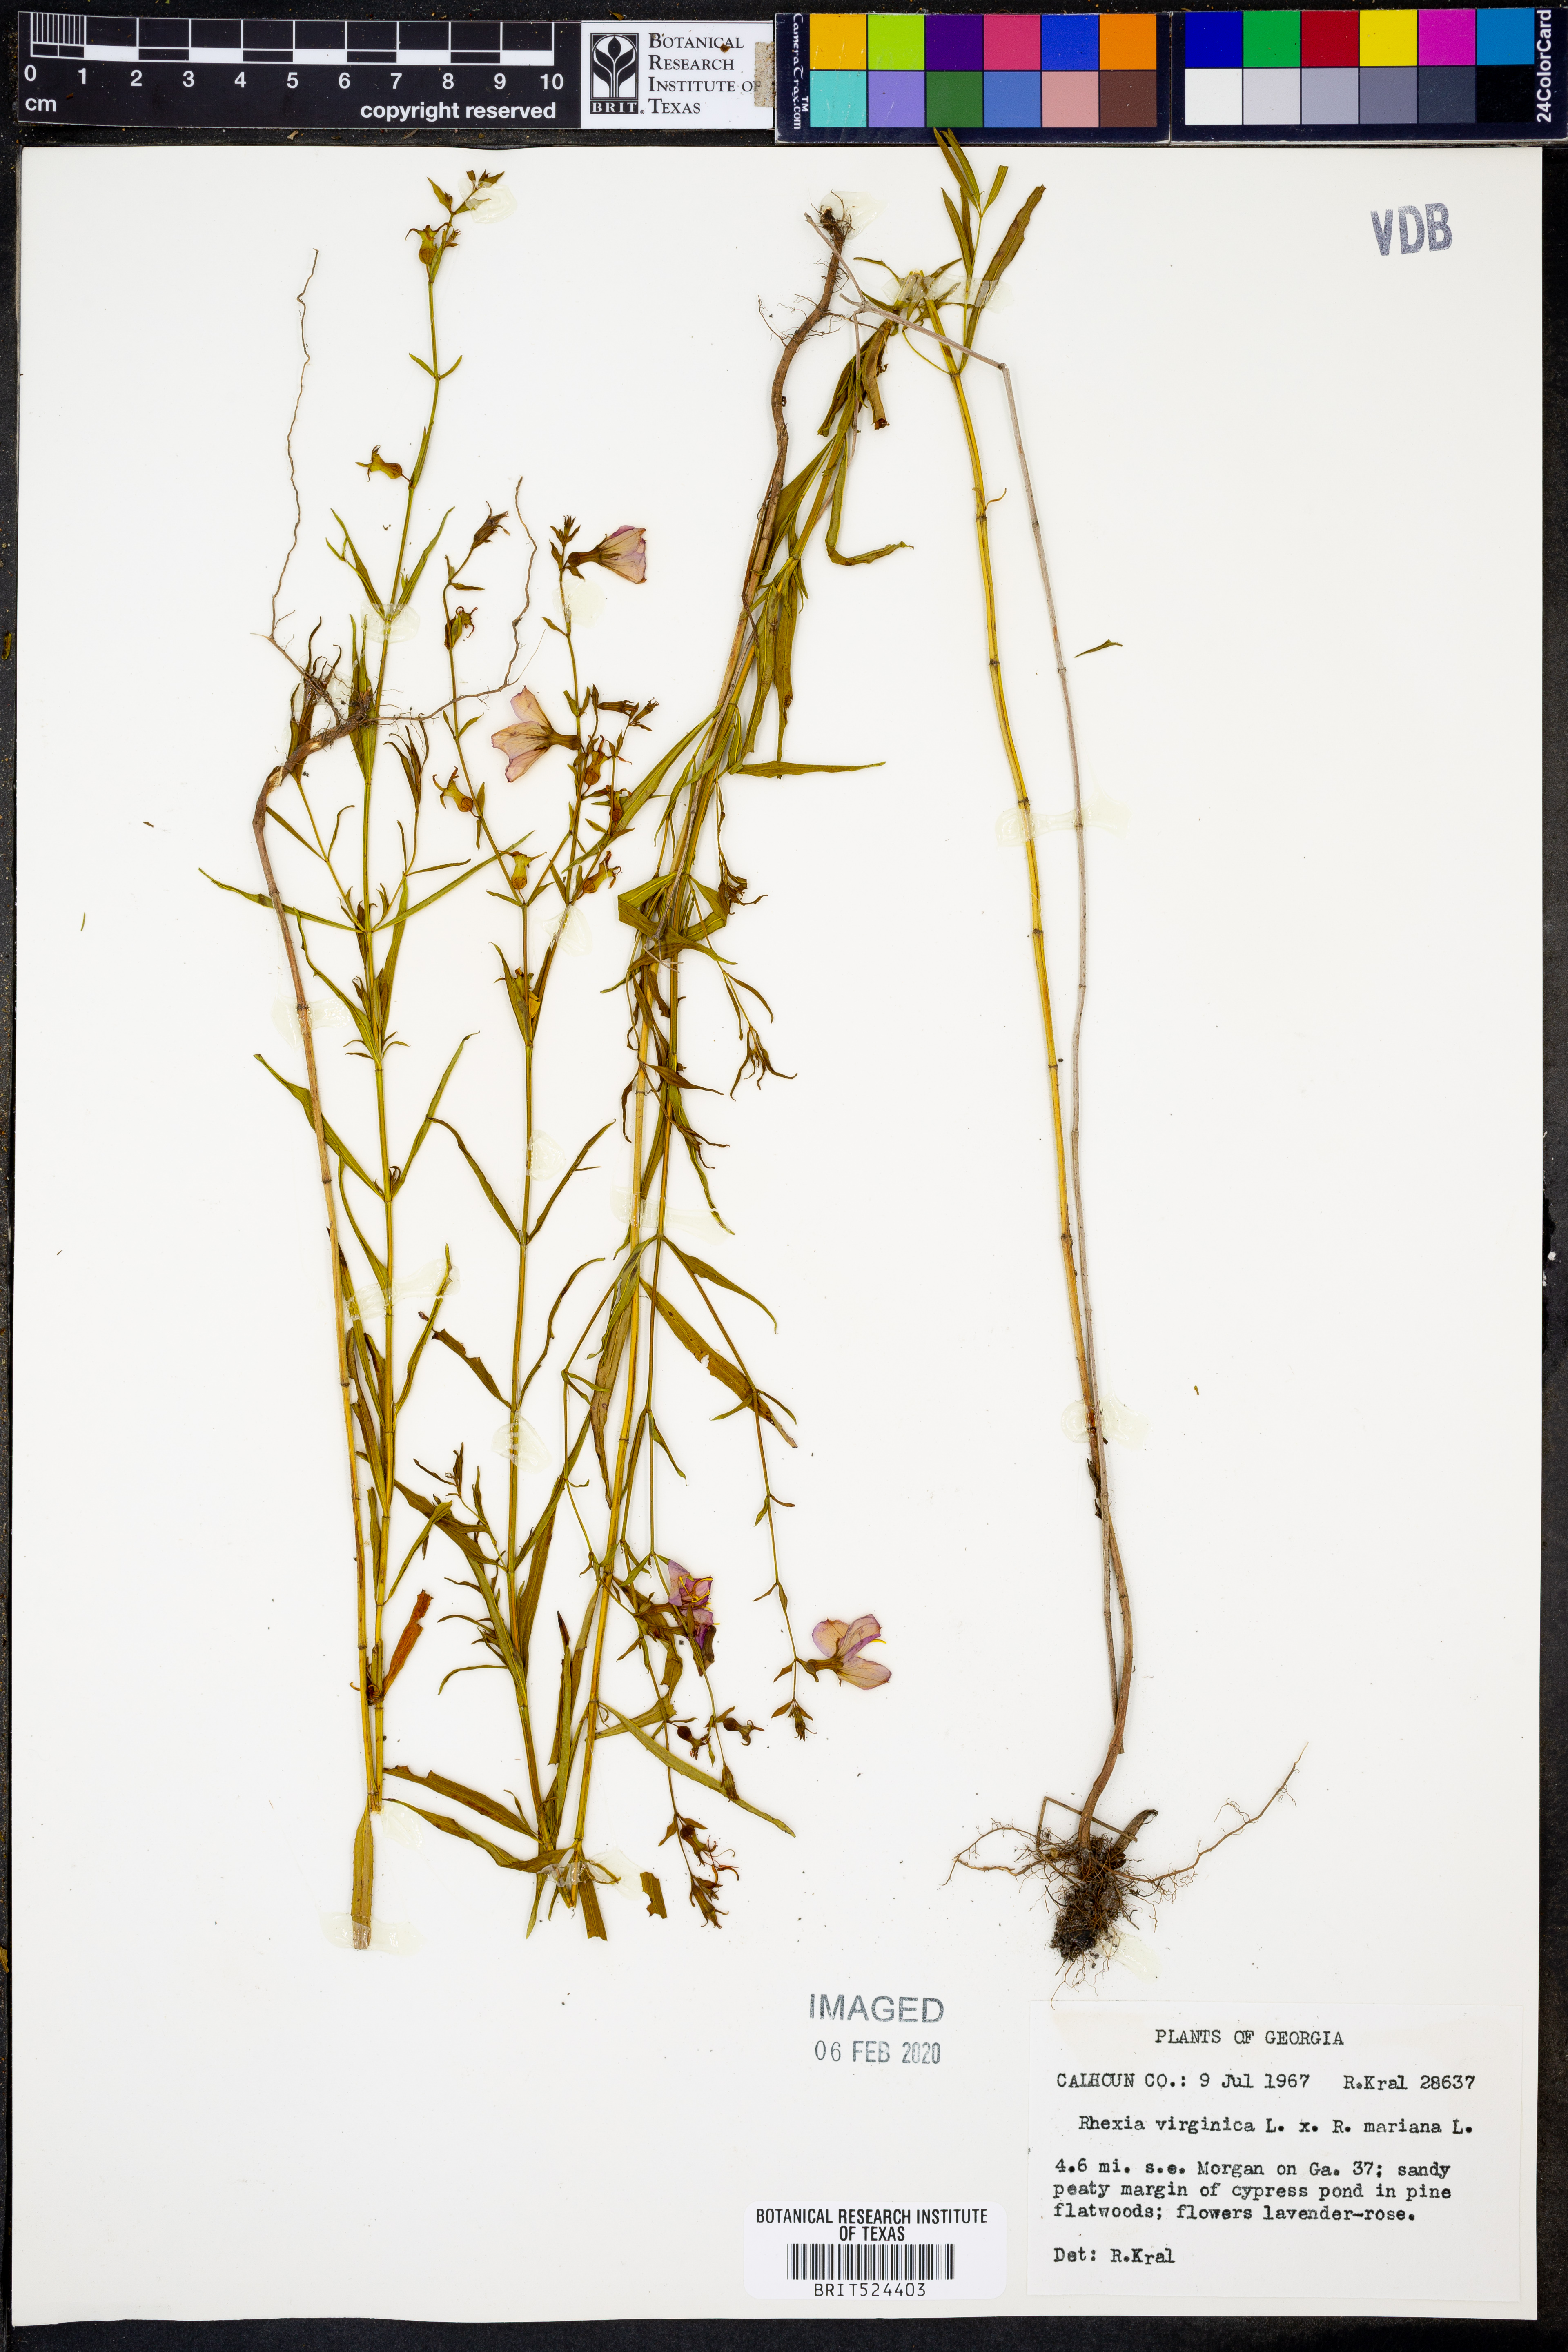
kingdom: Plantae
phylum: Tracheophyta
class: Magnoliopsida
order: Myrtales
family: Melastomataceae
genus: Rhexia
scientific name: Rhexia virginica
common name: Common meadow beauty
